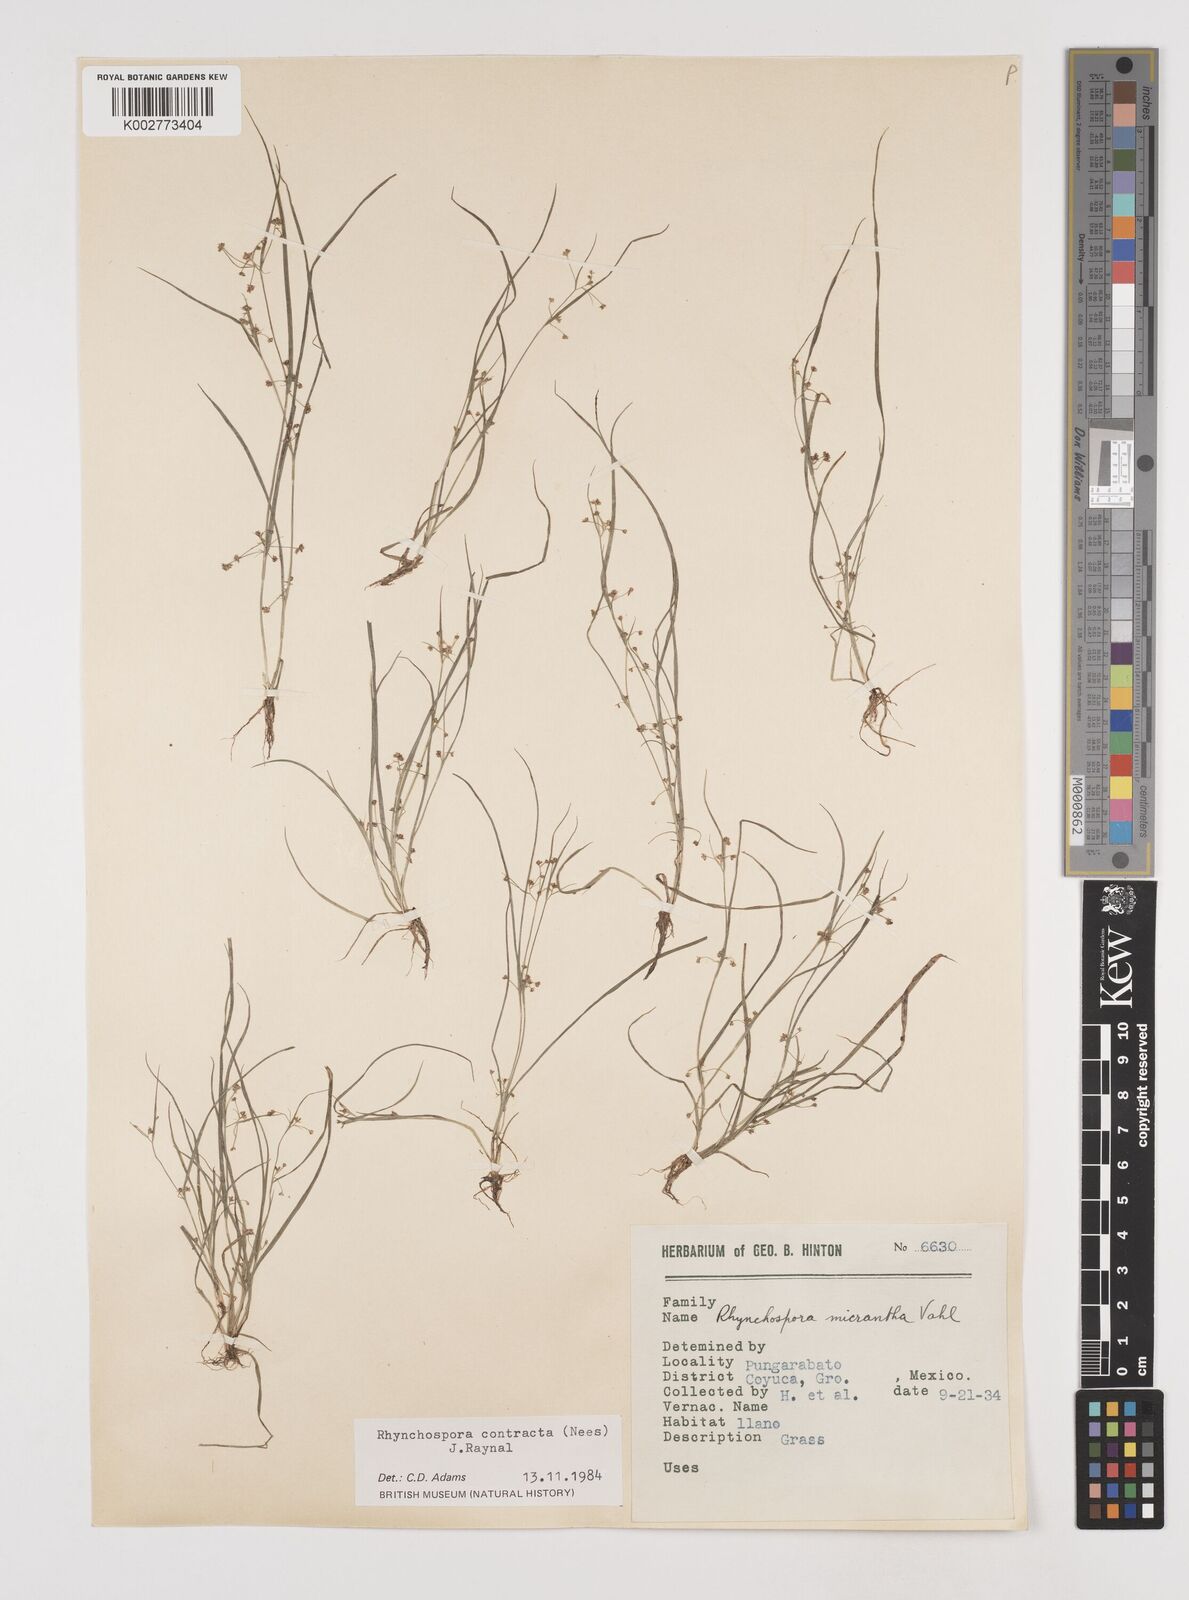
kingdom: Plantae
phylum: Tracheophyta
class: Liliopsida
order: Poales
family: Cyperaceae
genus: Rhynchospora
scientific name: Rhynchospora contracta
